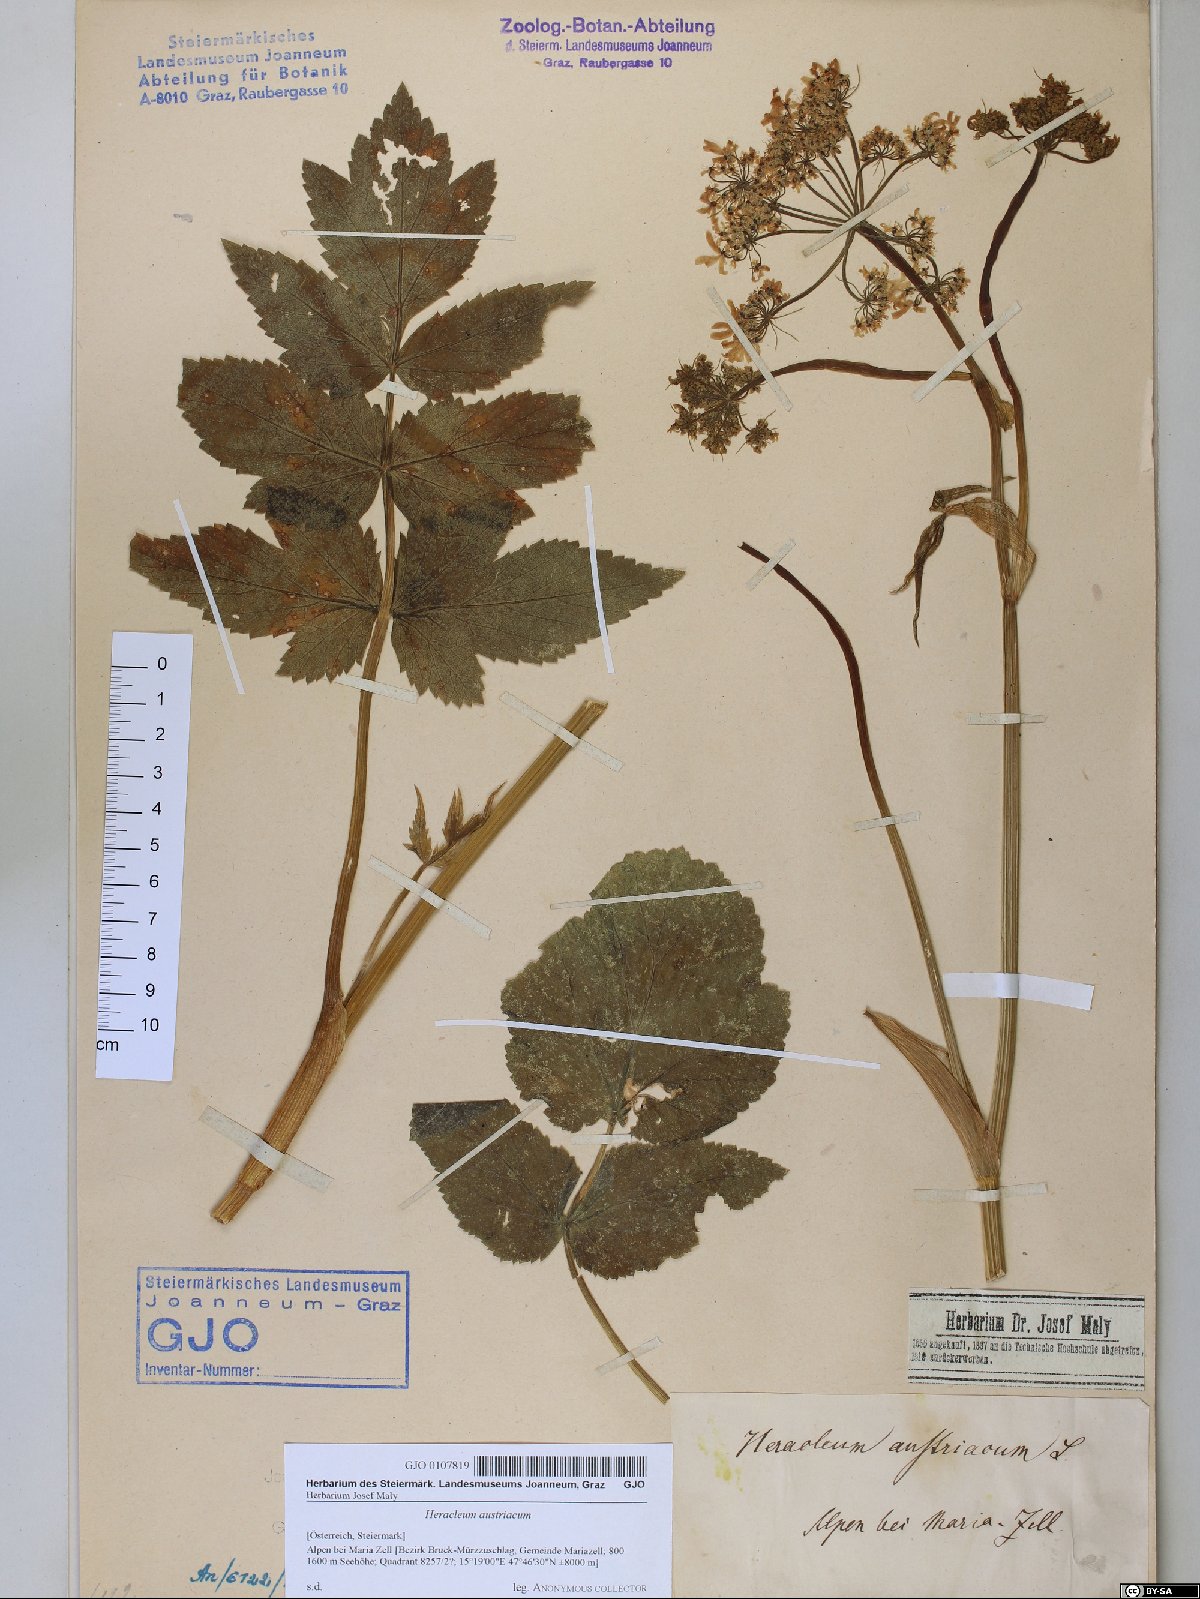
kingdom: Plantae
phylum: Tracheophyta
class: Magnoliopsida
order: Apiales
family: Apiaceae
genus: Heracleum
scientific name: Heracleum austriacum
